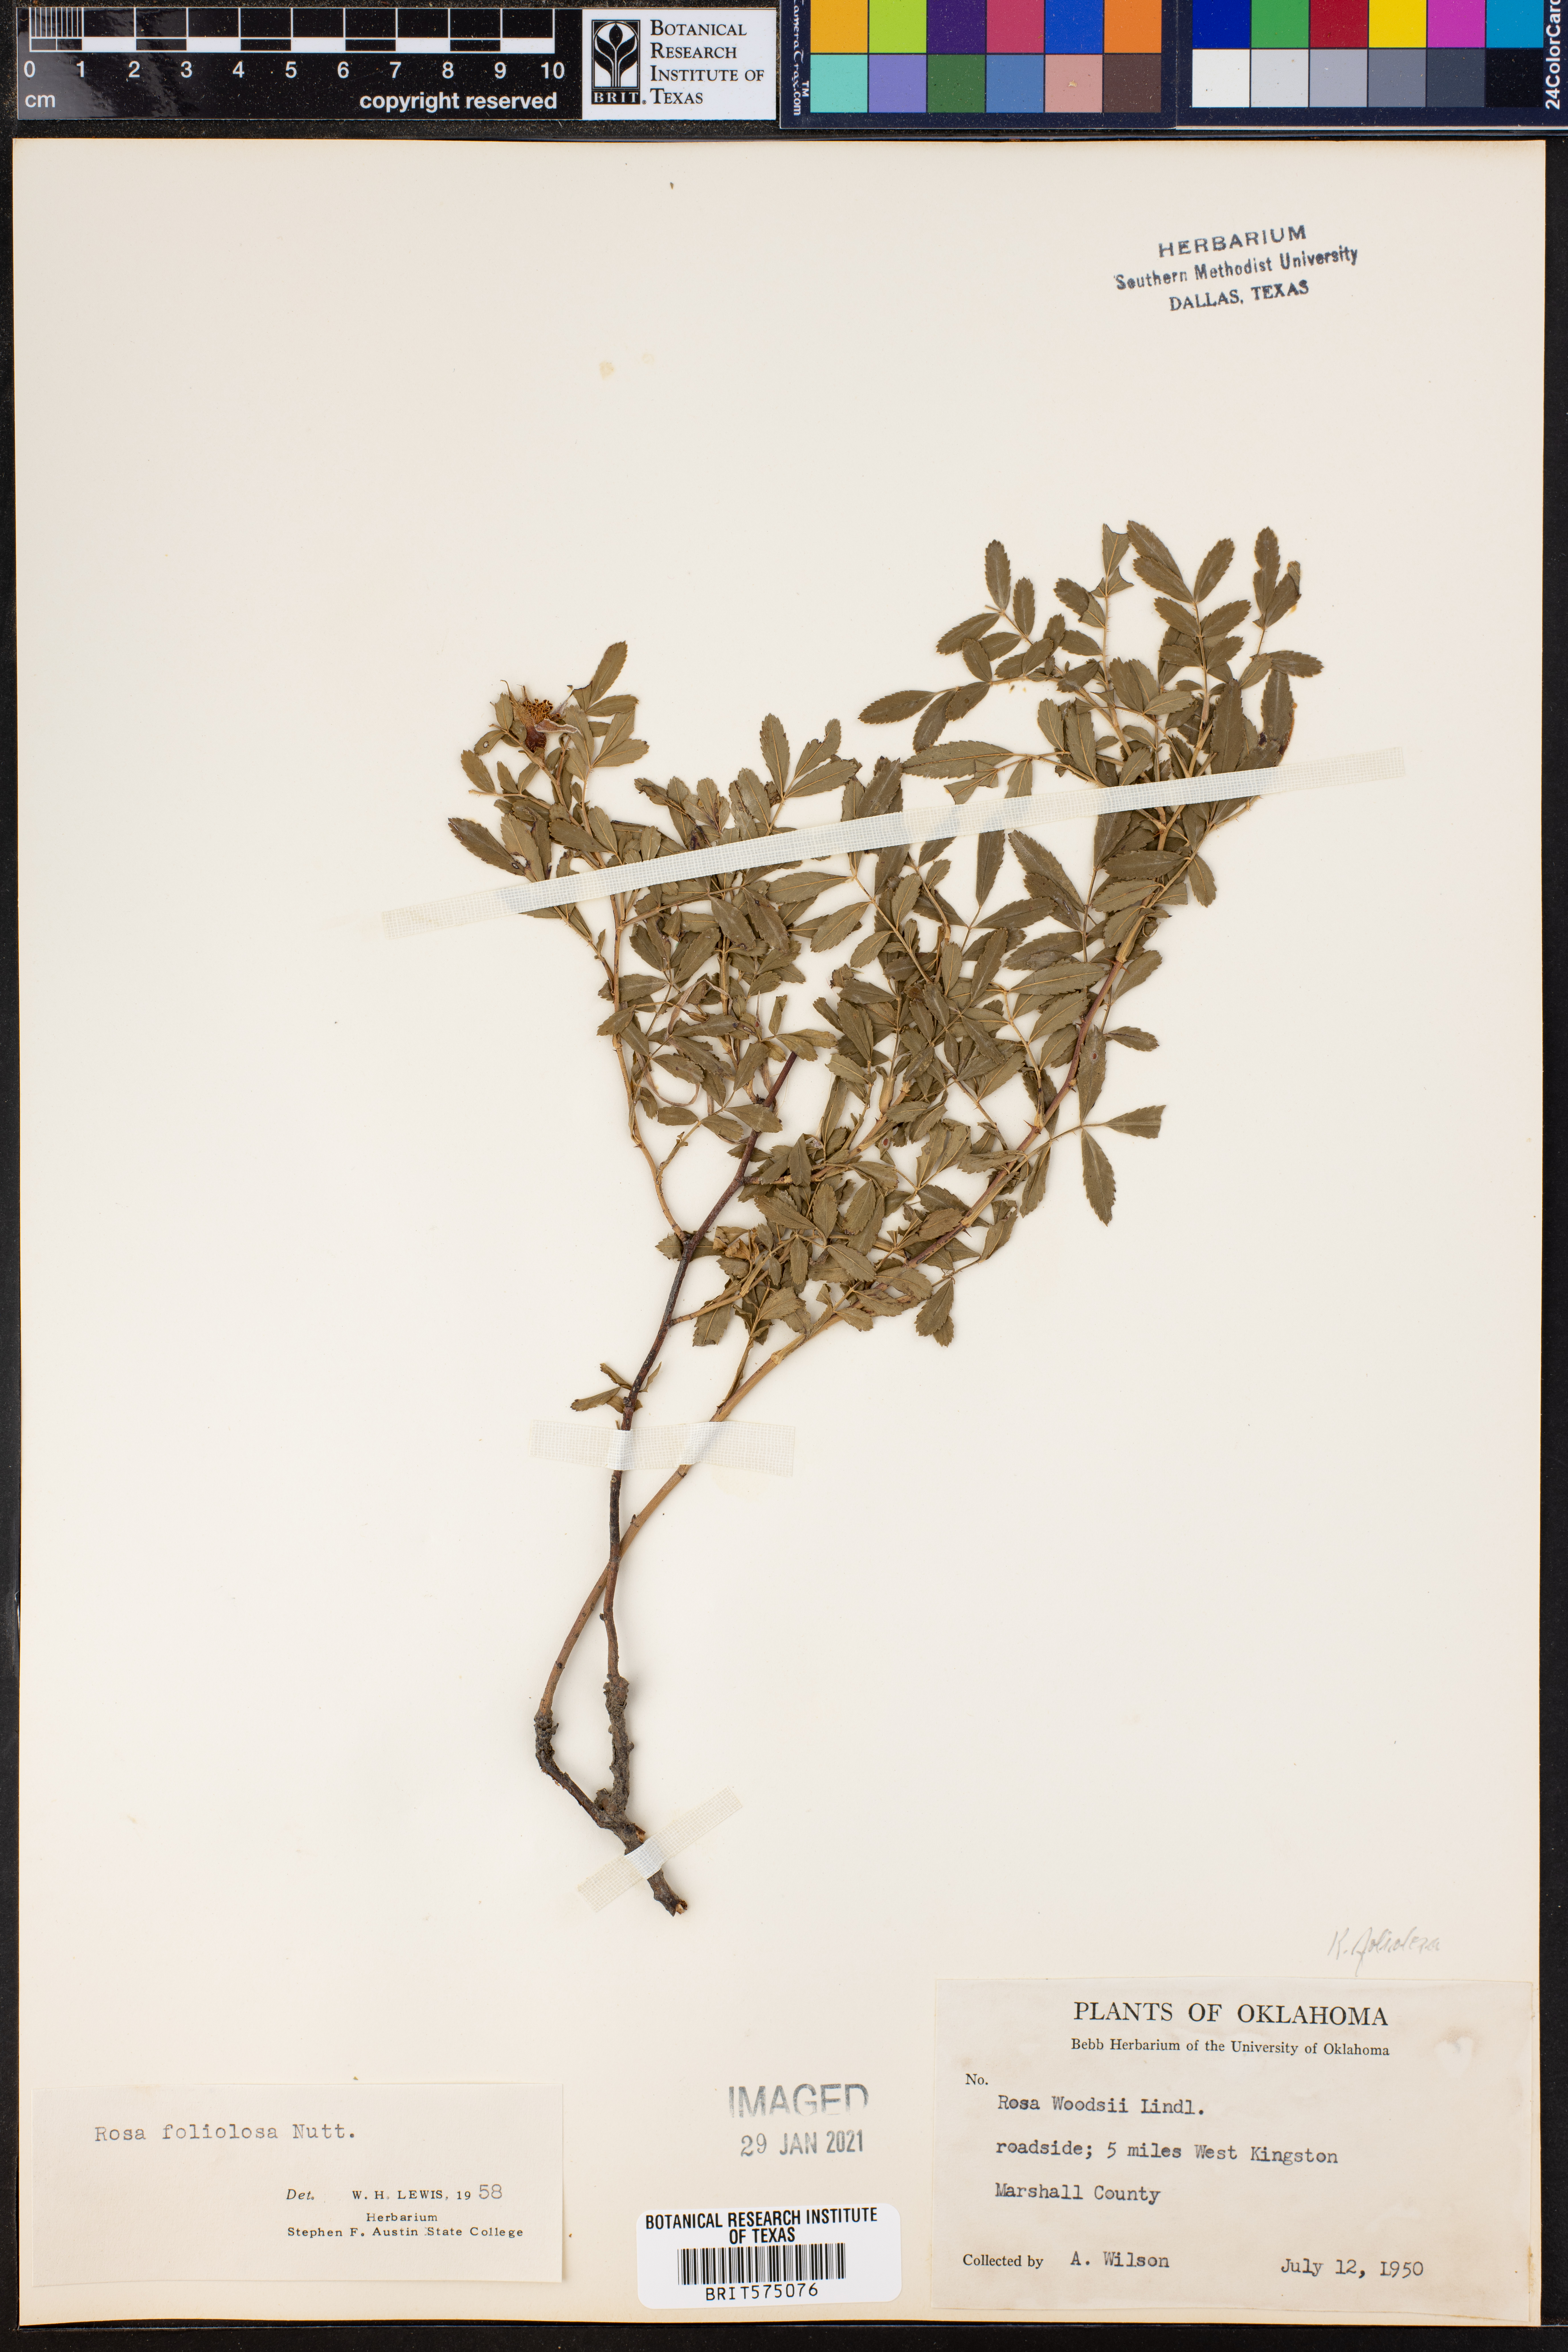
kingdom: Plantae
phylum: Tracheophyta
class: Magnoliopsida
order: Rosales
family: Rosaceae
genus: Rosa
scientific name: Rosa foliolosa
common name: White prairie rose
